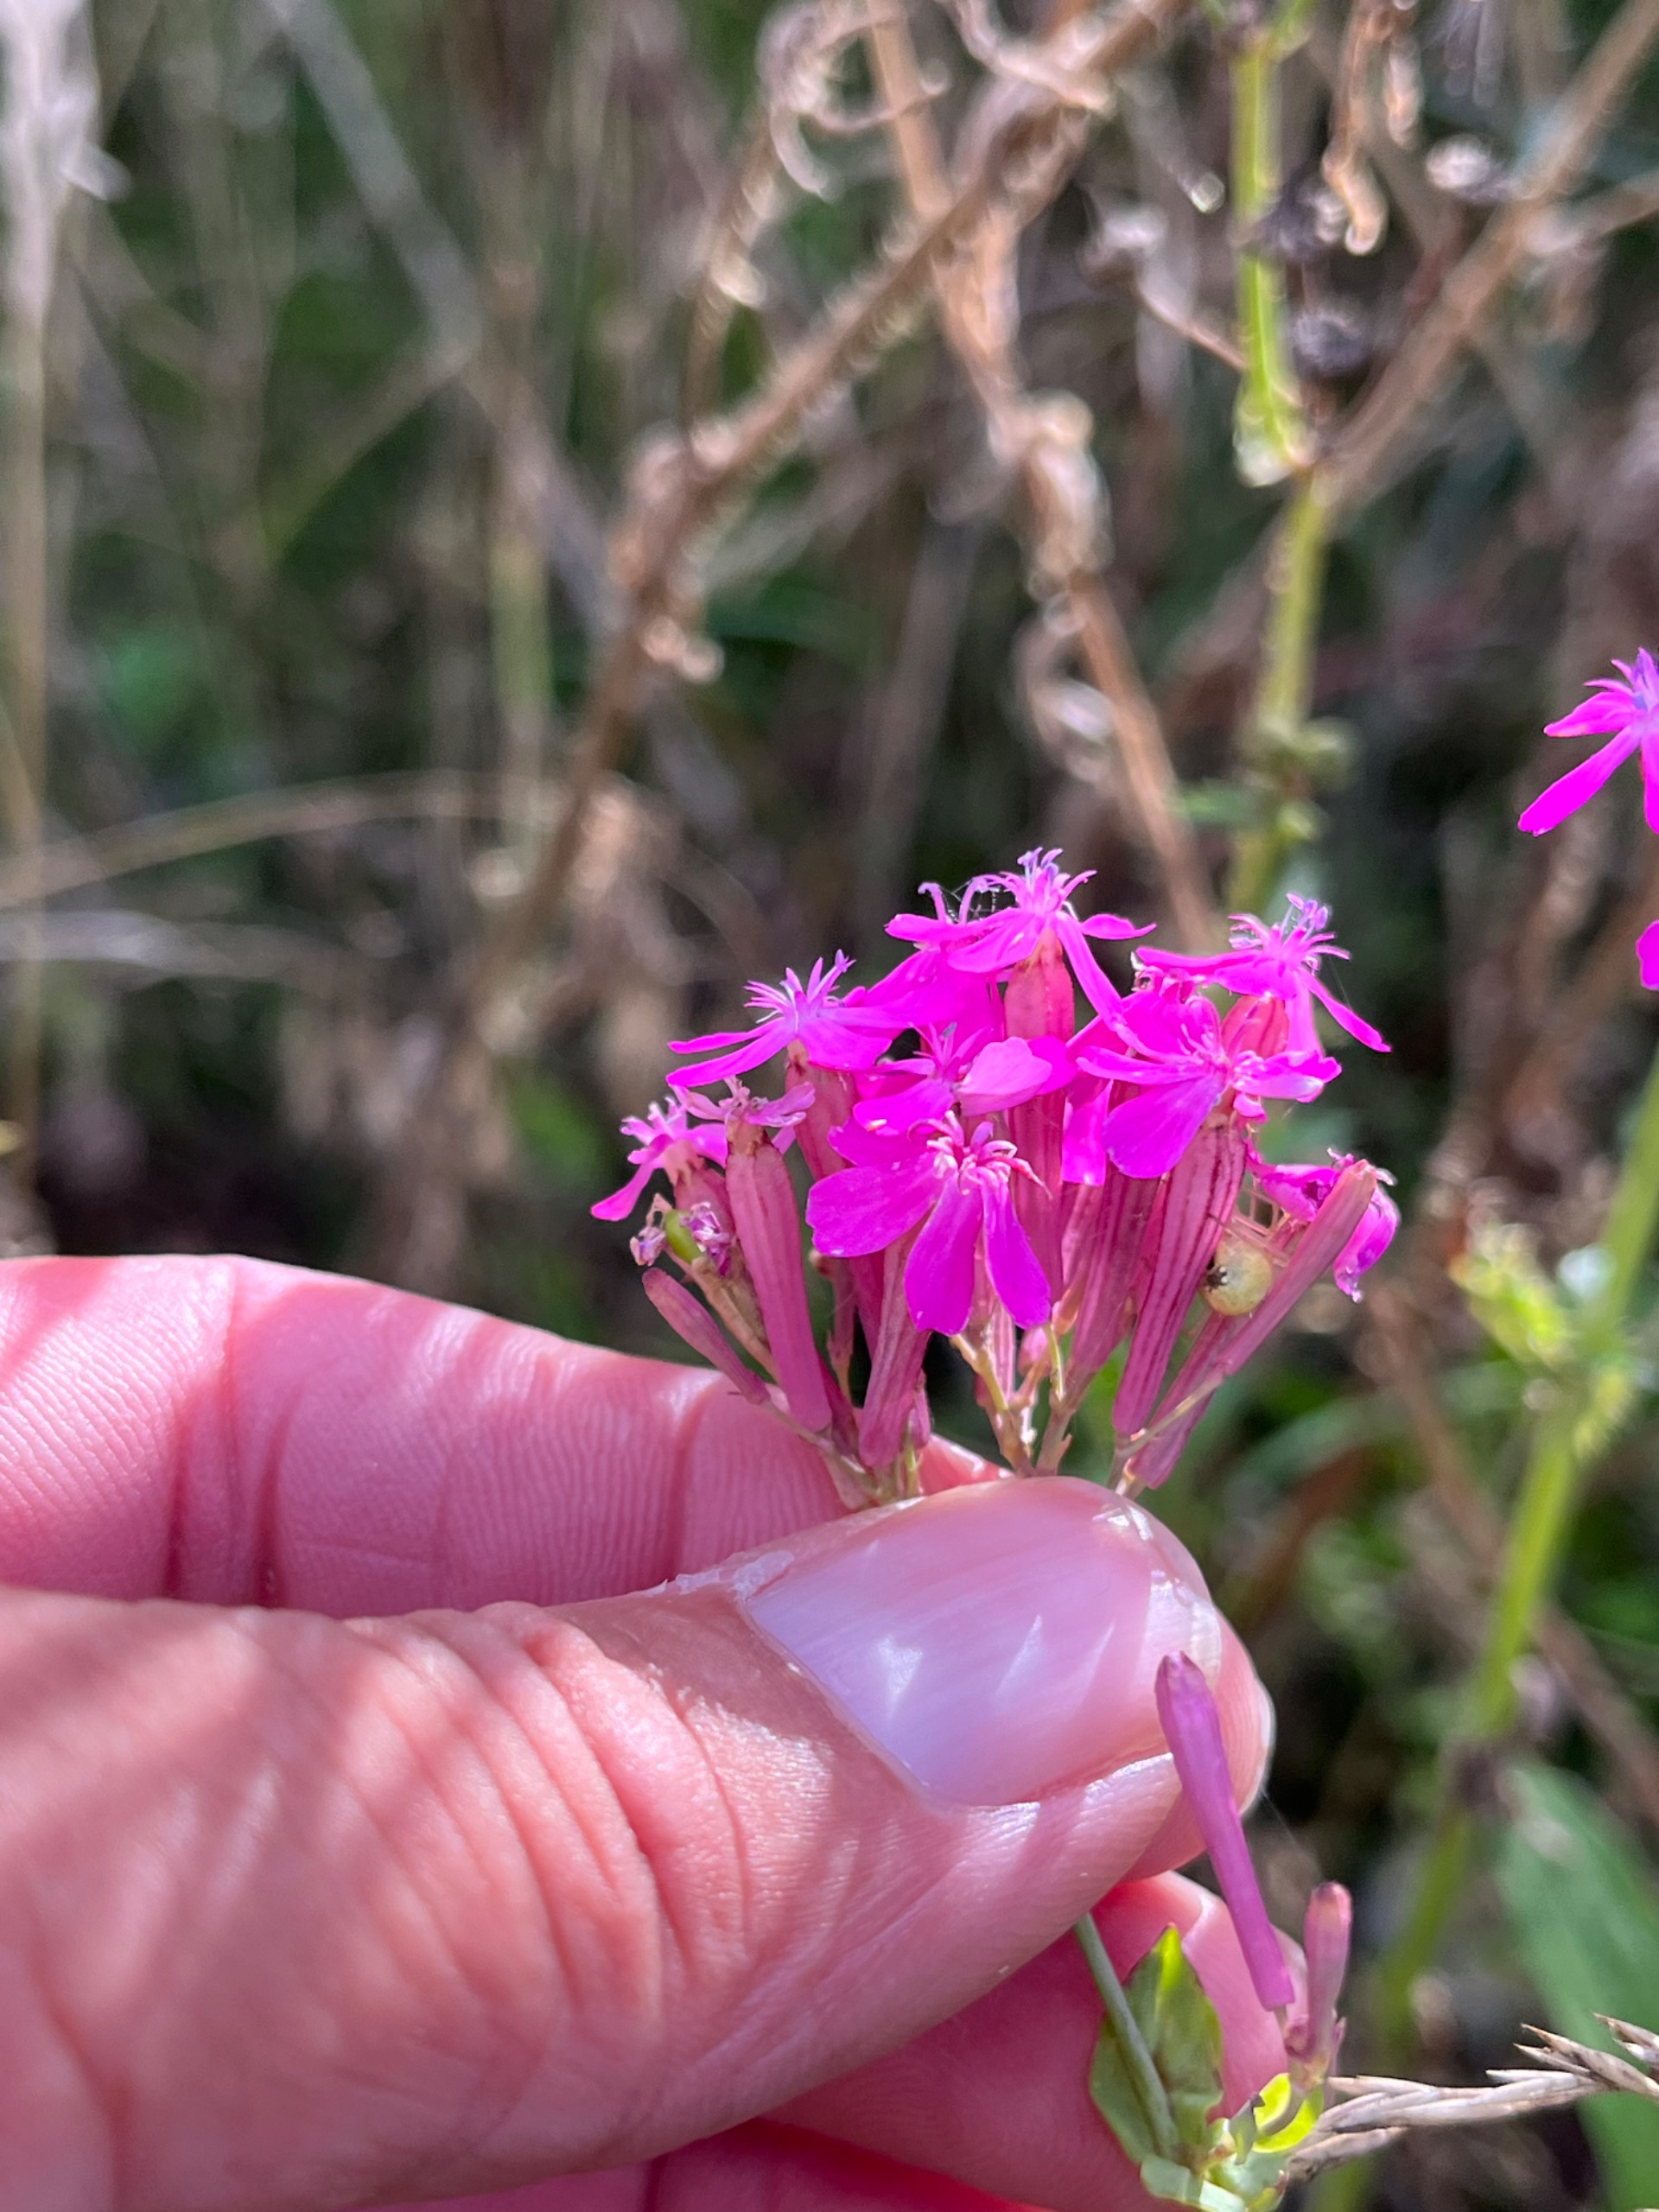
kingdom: Plantae
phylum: Tracheophyta
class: Magnoliopsida
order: Caryophyllales
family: Caryophyllaceae
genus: Atocion
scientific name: Atocion armeria
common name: Knippe-limurt
